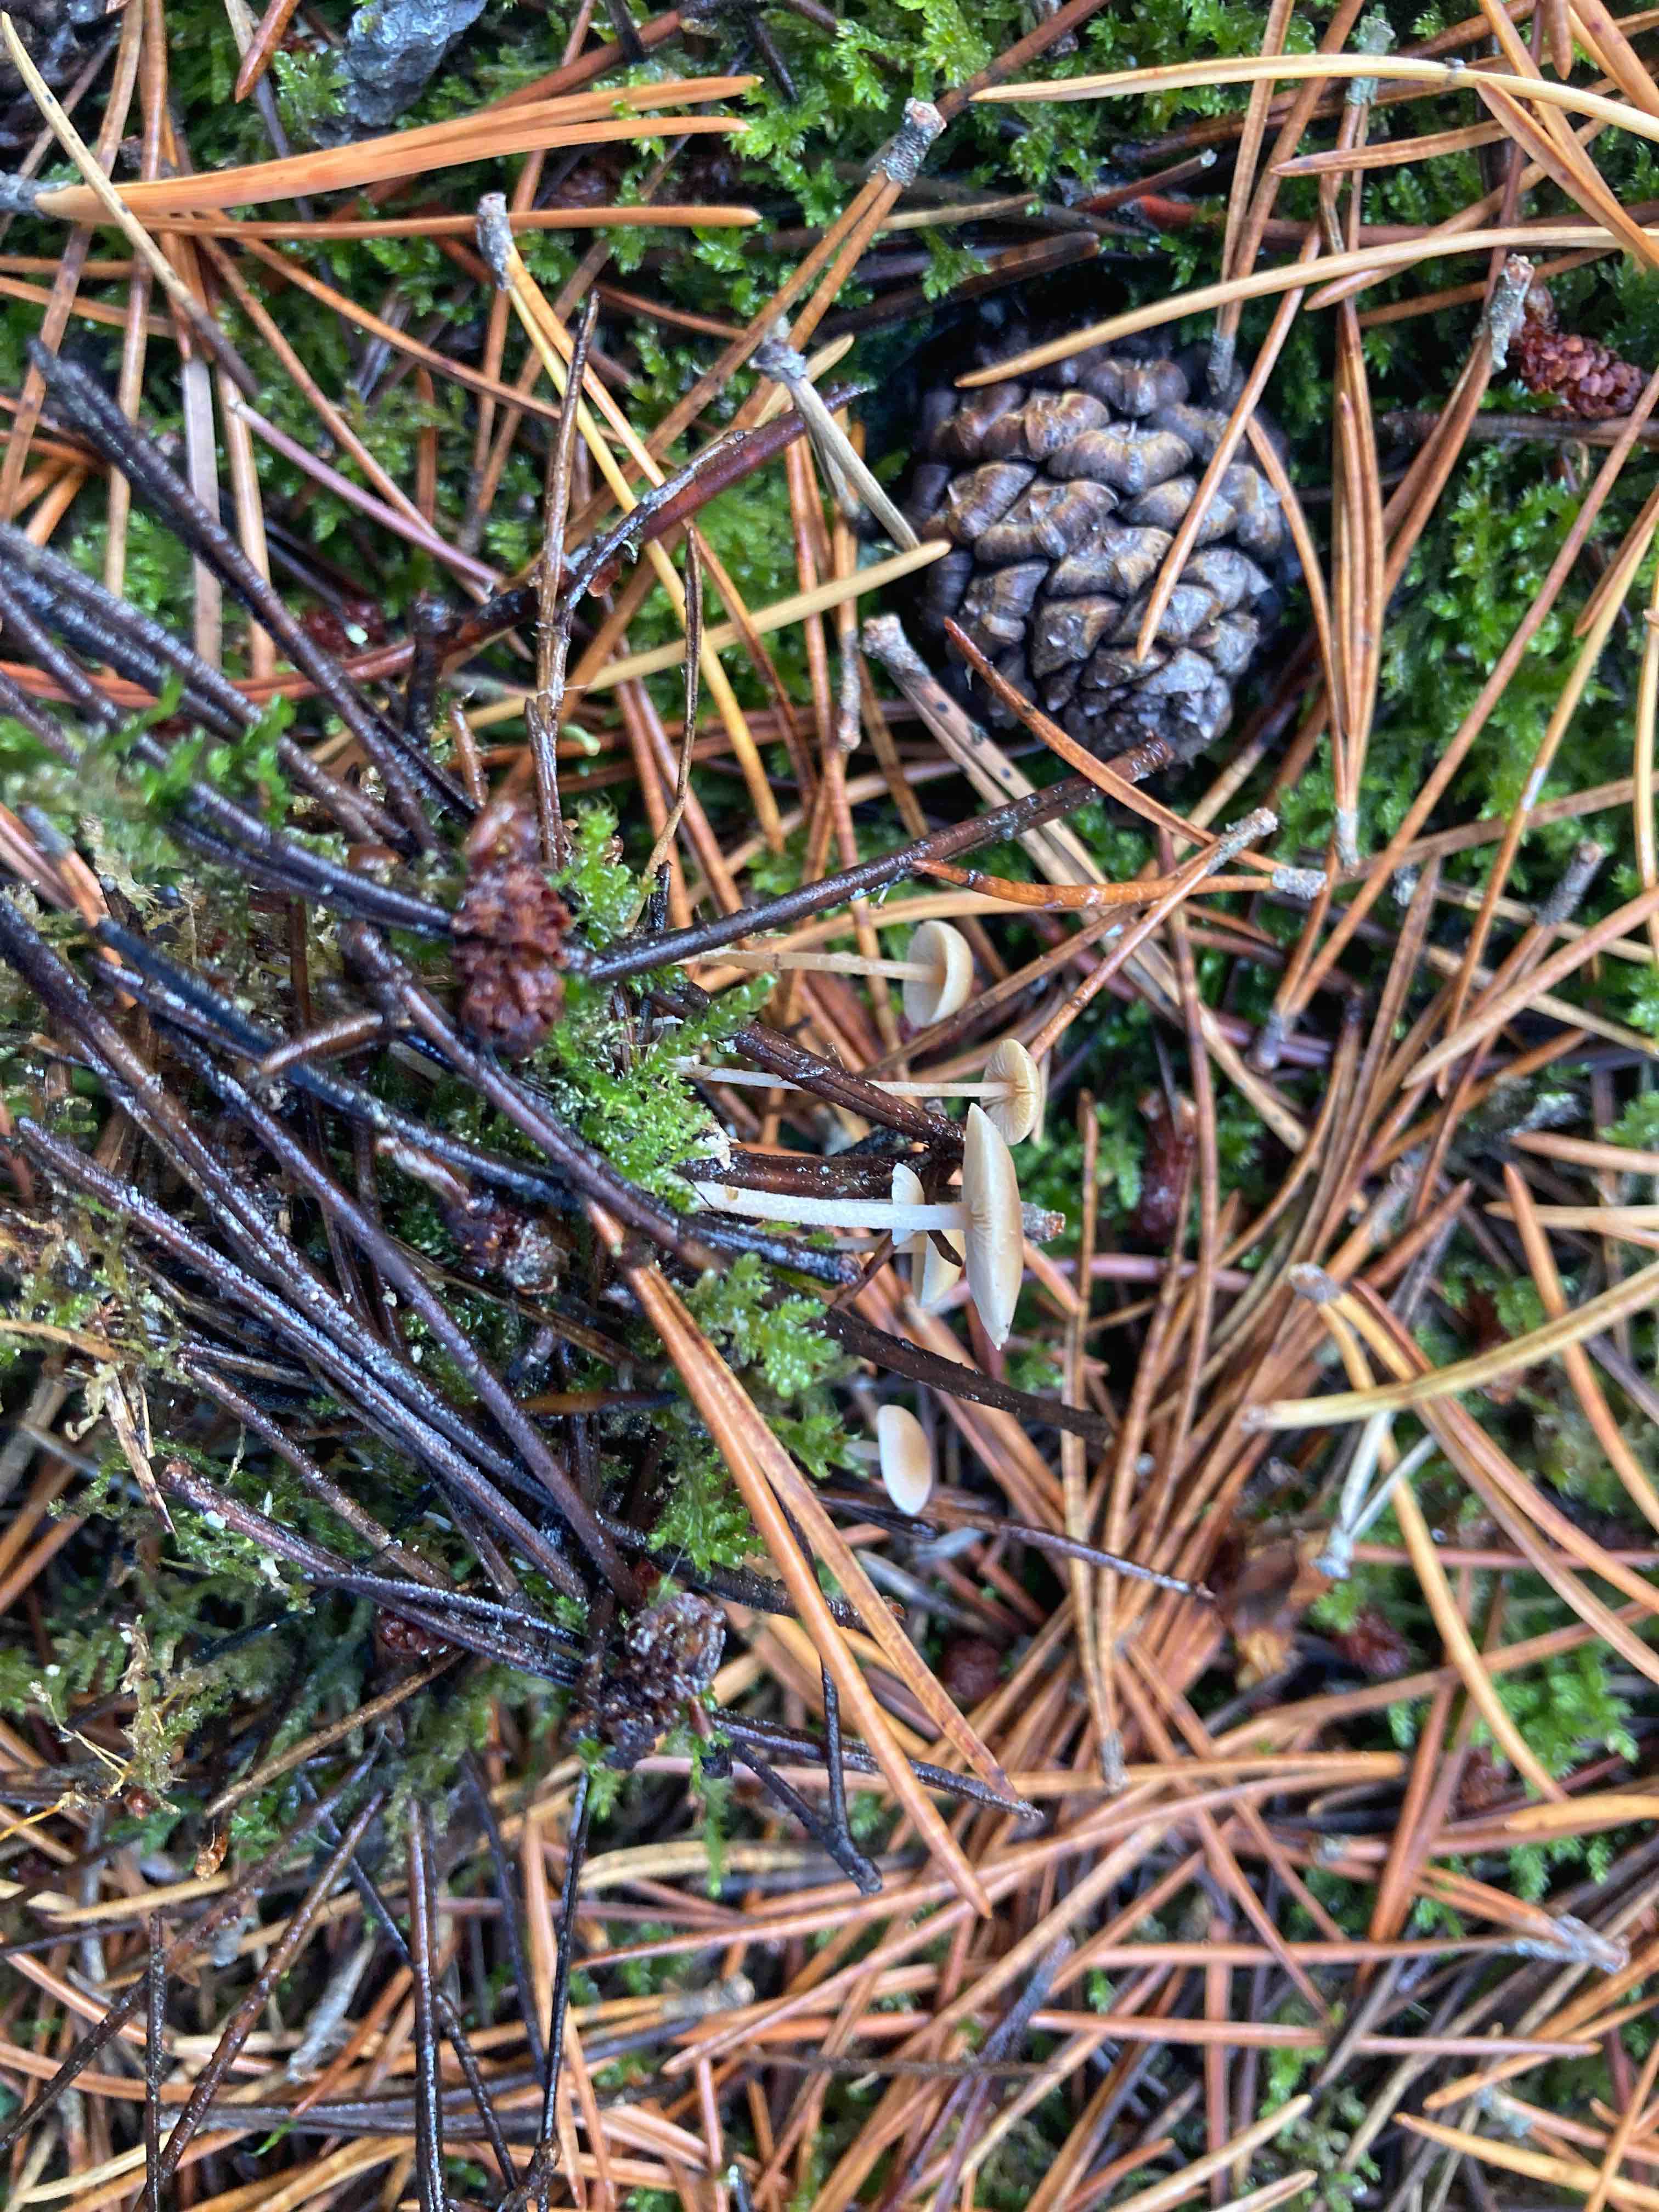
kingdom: Fungi
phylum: Basidiomycota
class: Agaricomycetes
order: Agaricales
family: Marasmiaceae
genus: Baeospora
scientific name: Baeospora myosura
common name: koglebruskhat
